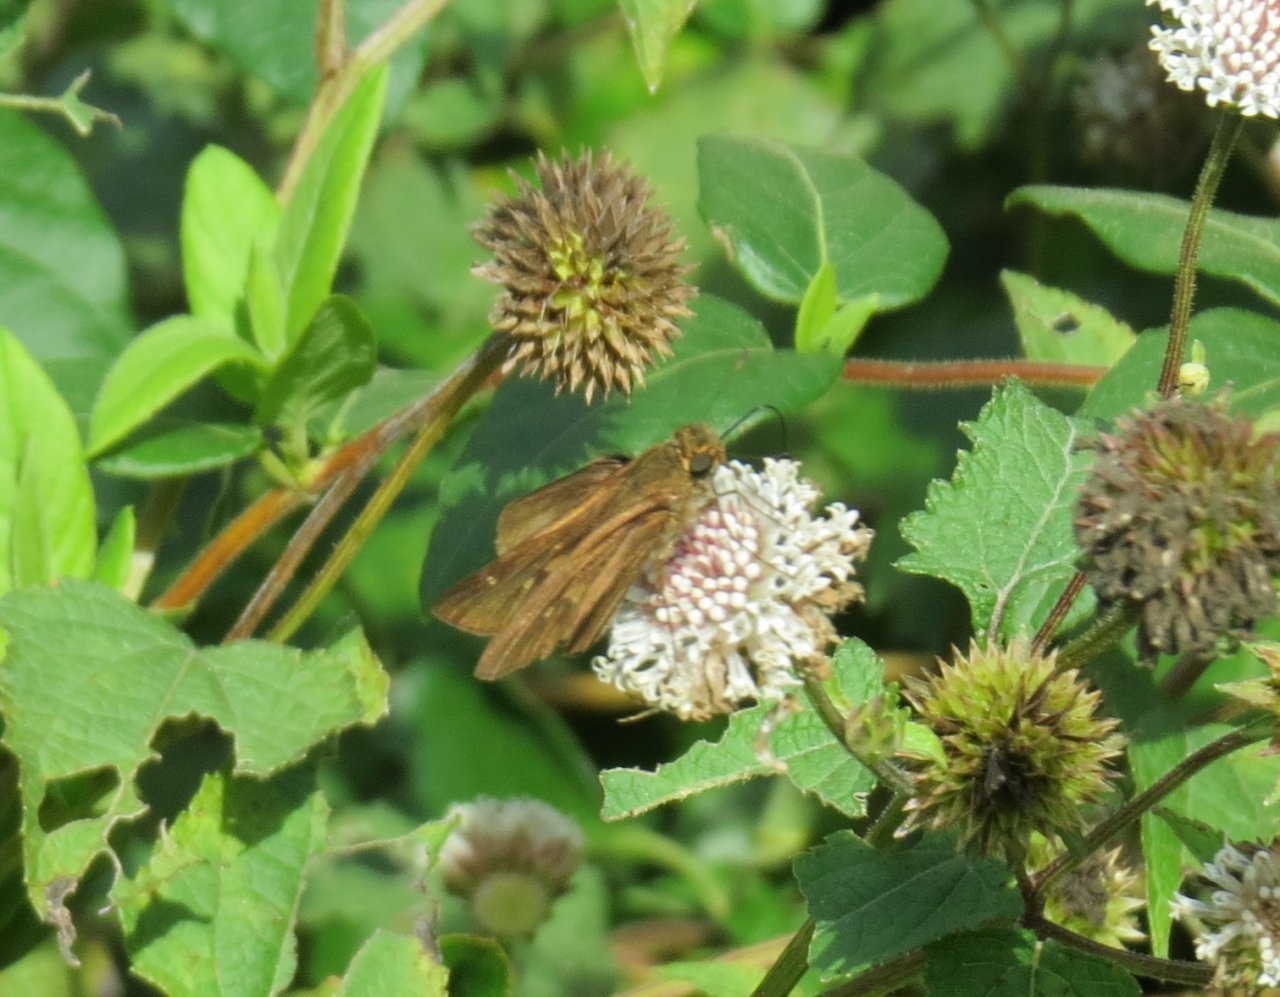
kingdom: Animalia
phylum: Arthropoda
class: Insecta
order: Lepidoptera
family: Hesperiidae
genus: Panoquina
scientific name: Panoquina ocola
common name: Ocola Skipper
